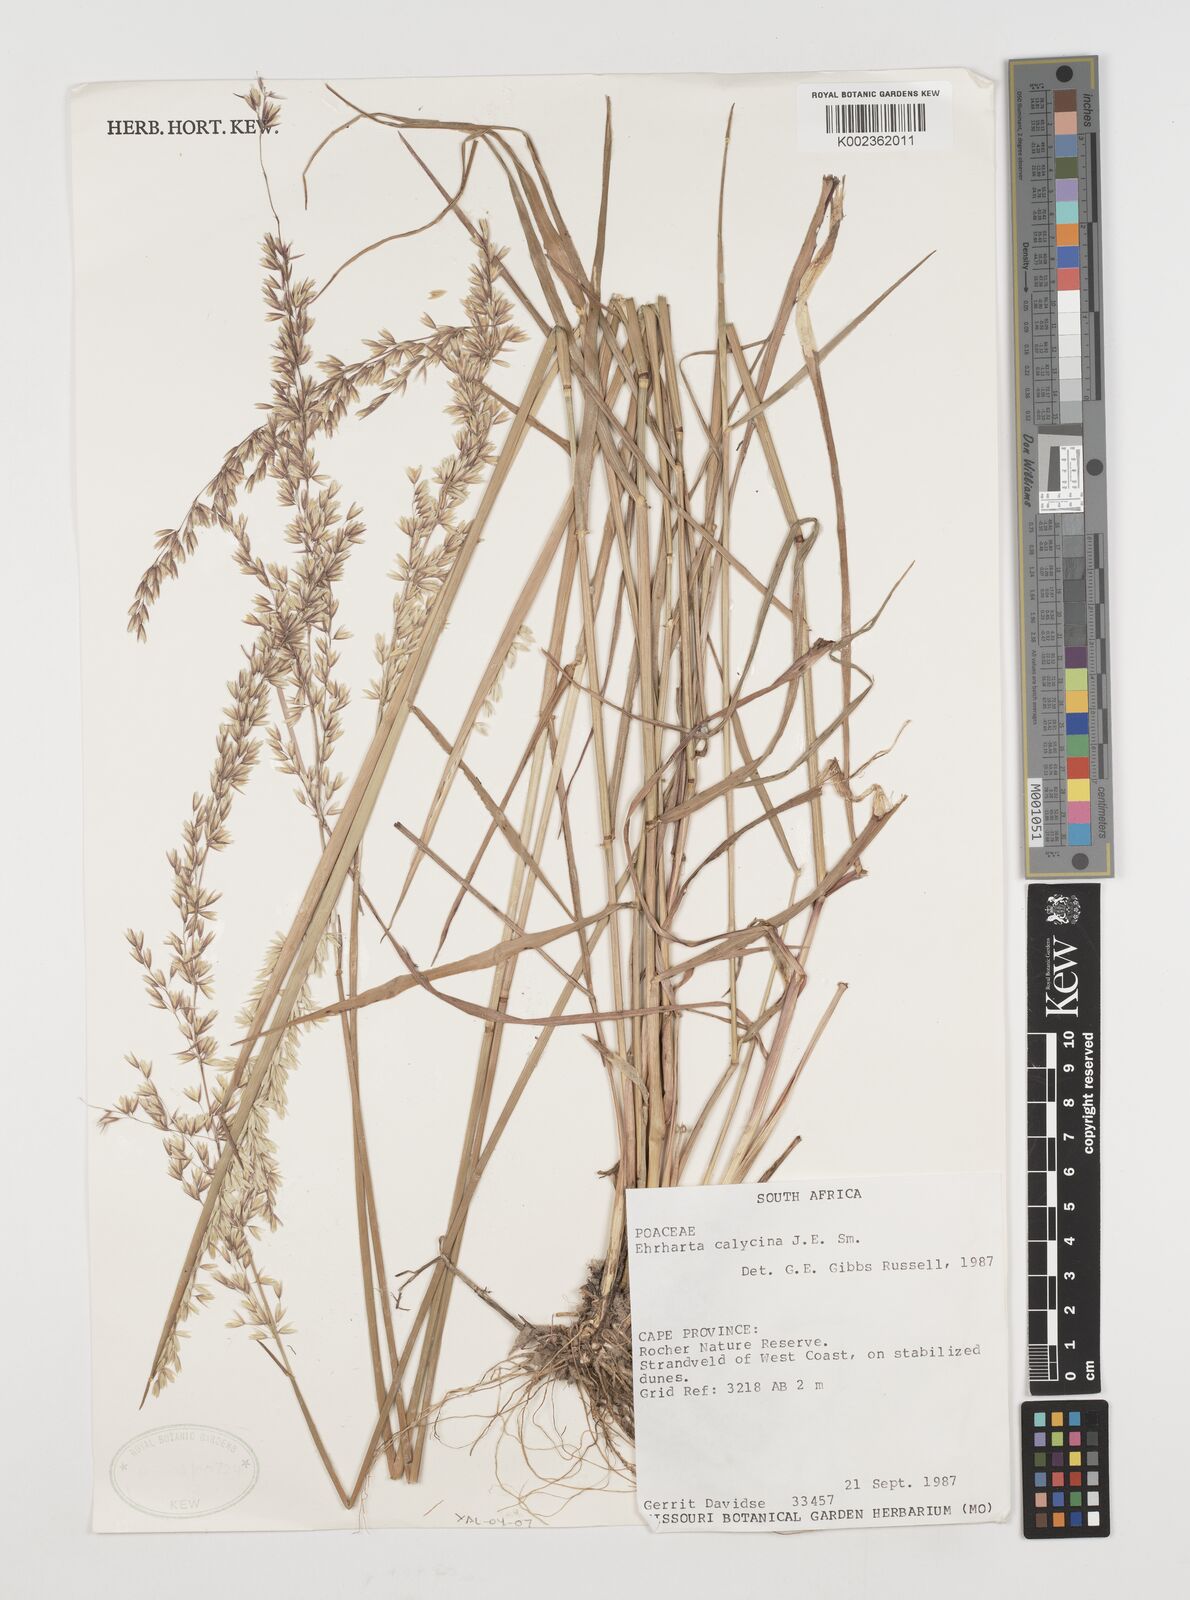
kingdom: Plantae
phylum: Tracheophyta
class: Liliopsida
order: Poales
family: Poaceae
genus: Ehrharta
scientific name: Ehrharta calycina
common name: Perennial veldtgrass
